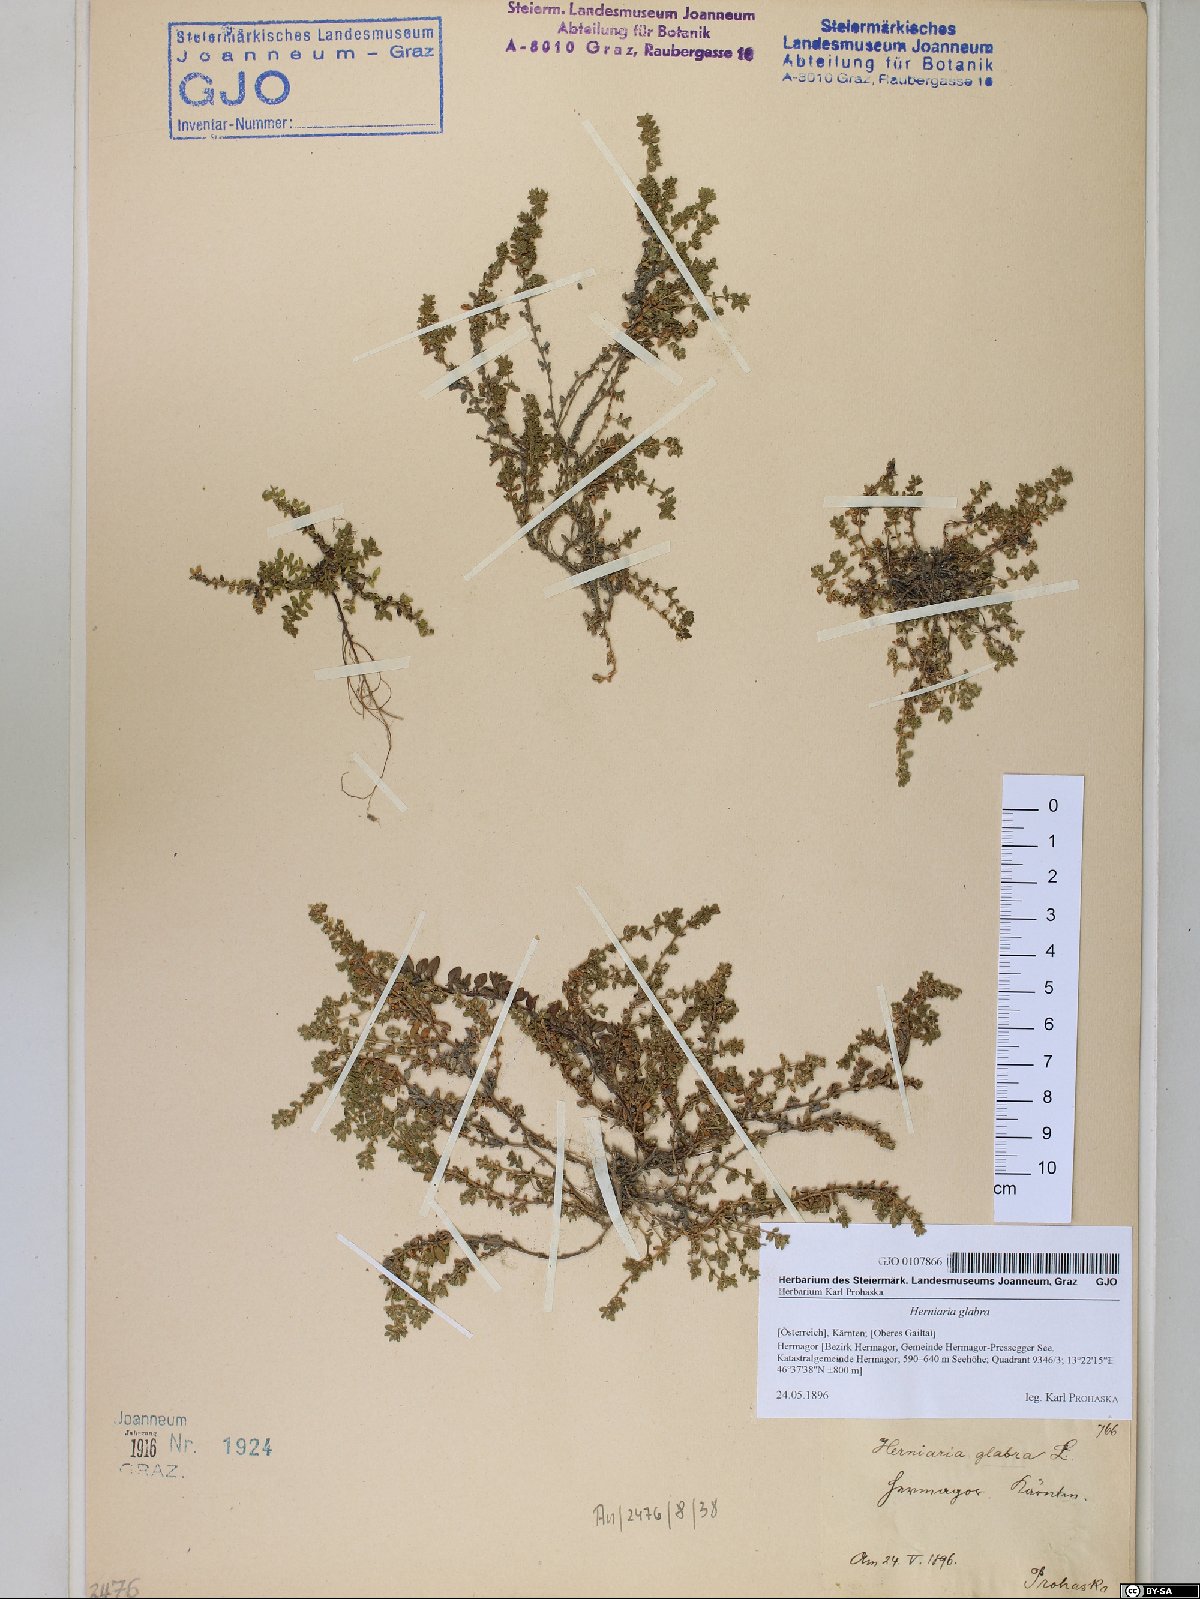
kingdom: Plantae
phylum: Tracheophyta
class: Magnoliopsida
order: Caryophyllales
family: Caryophyllaceae
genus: Herniaria
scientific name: Herniaria glabra
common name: Smooth rupturewort
